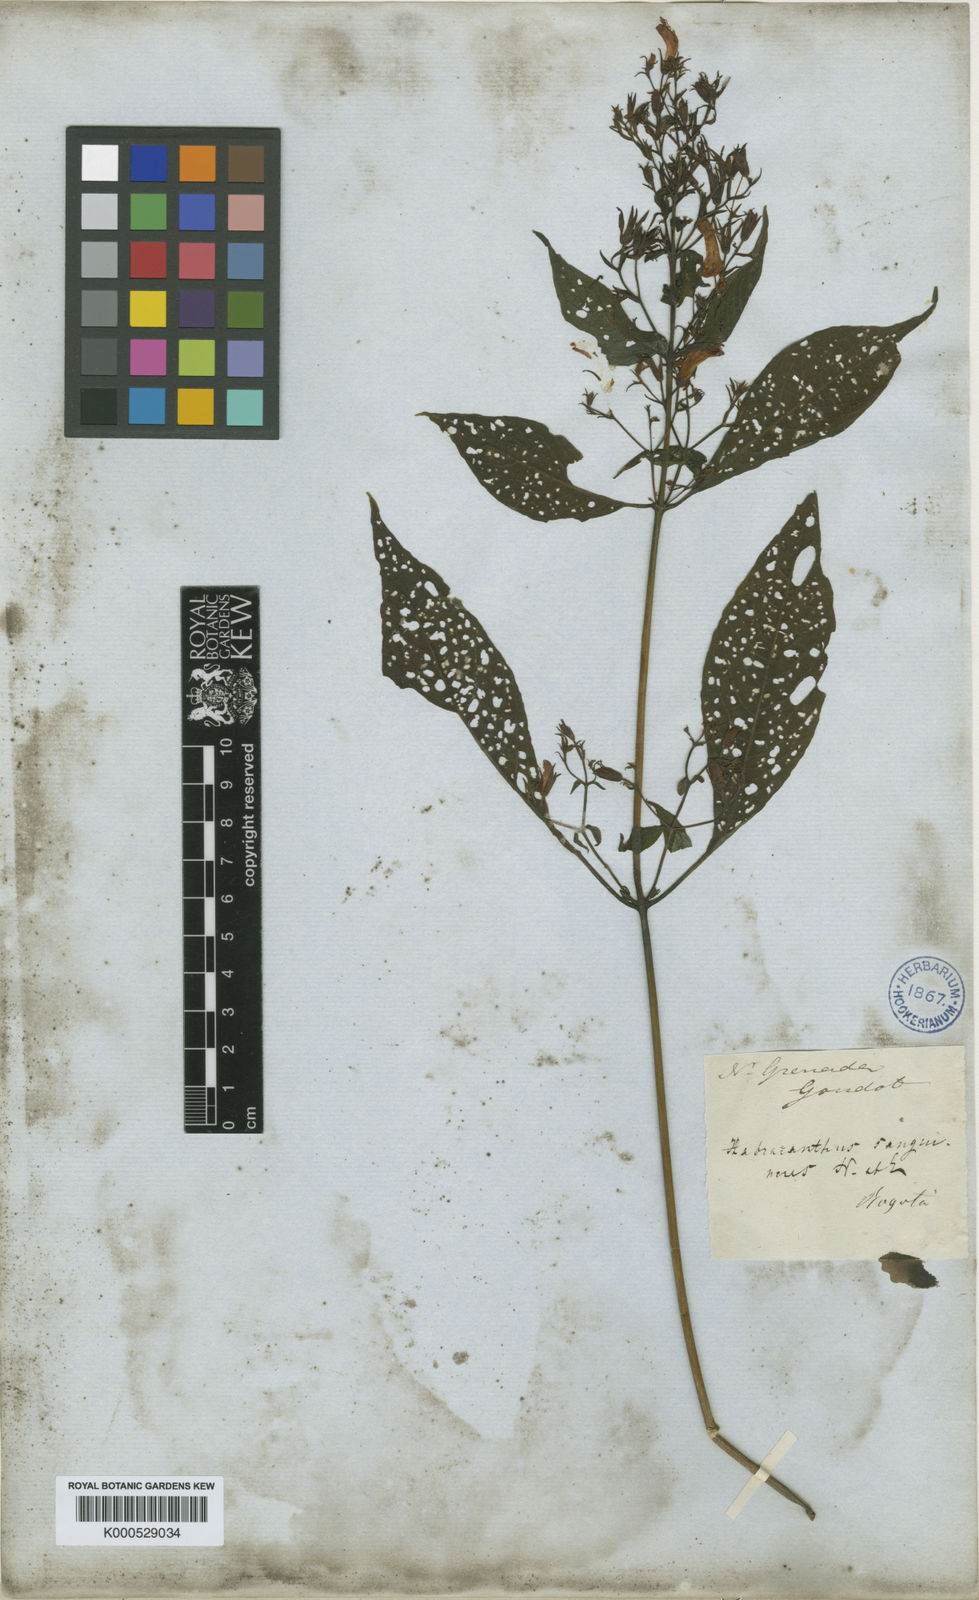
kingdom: Plantae
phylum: Tracheophyta
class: Magnoliopsida
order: Lamiales
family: Acanthaceae
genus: Stenostephanus
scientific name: Stenostephanus sanguineus
